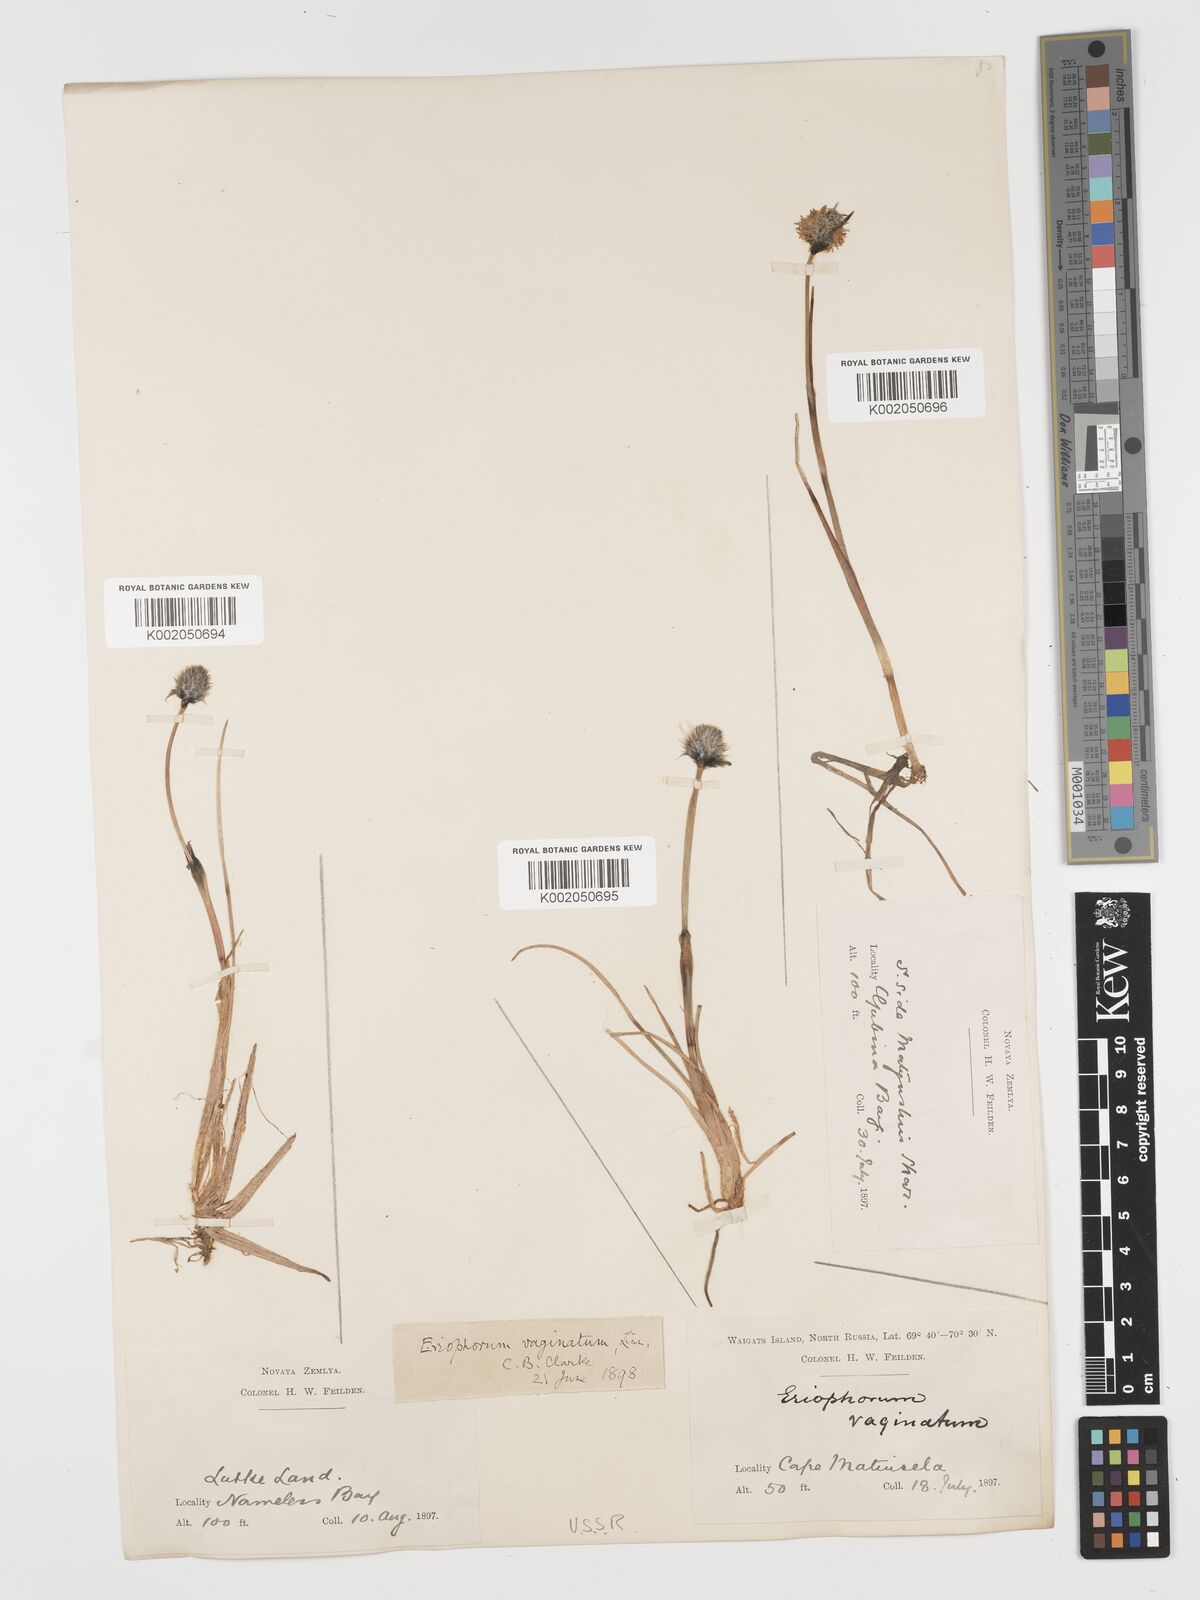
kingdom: Plantae
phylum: Tracheophyta
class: Liliopsida
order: Poales
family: Cyperaceae
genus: Eriophorum
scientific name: Eriophorum vaginatum
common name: Hare's-tail cottongrass
